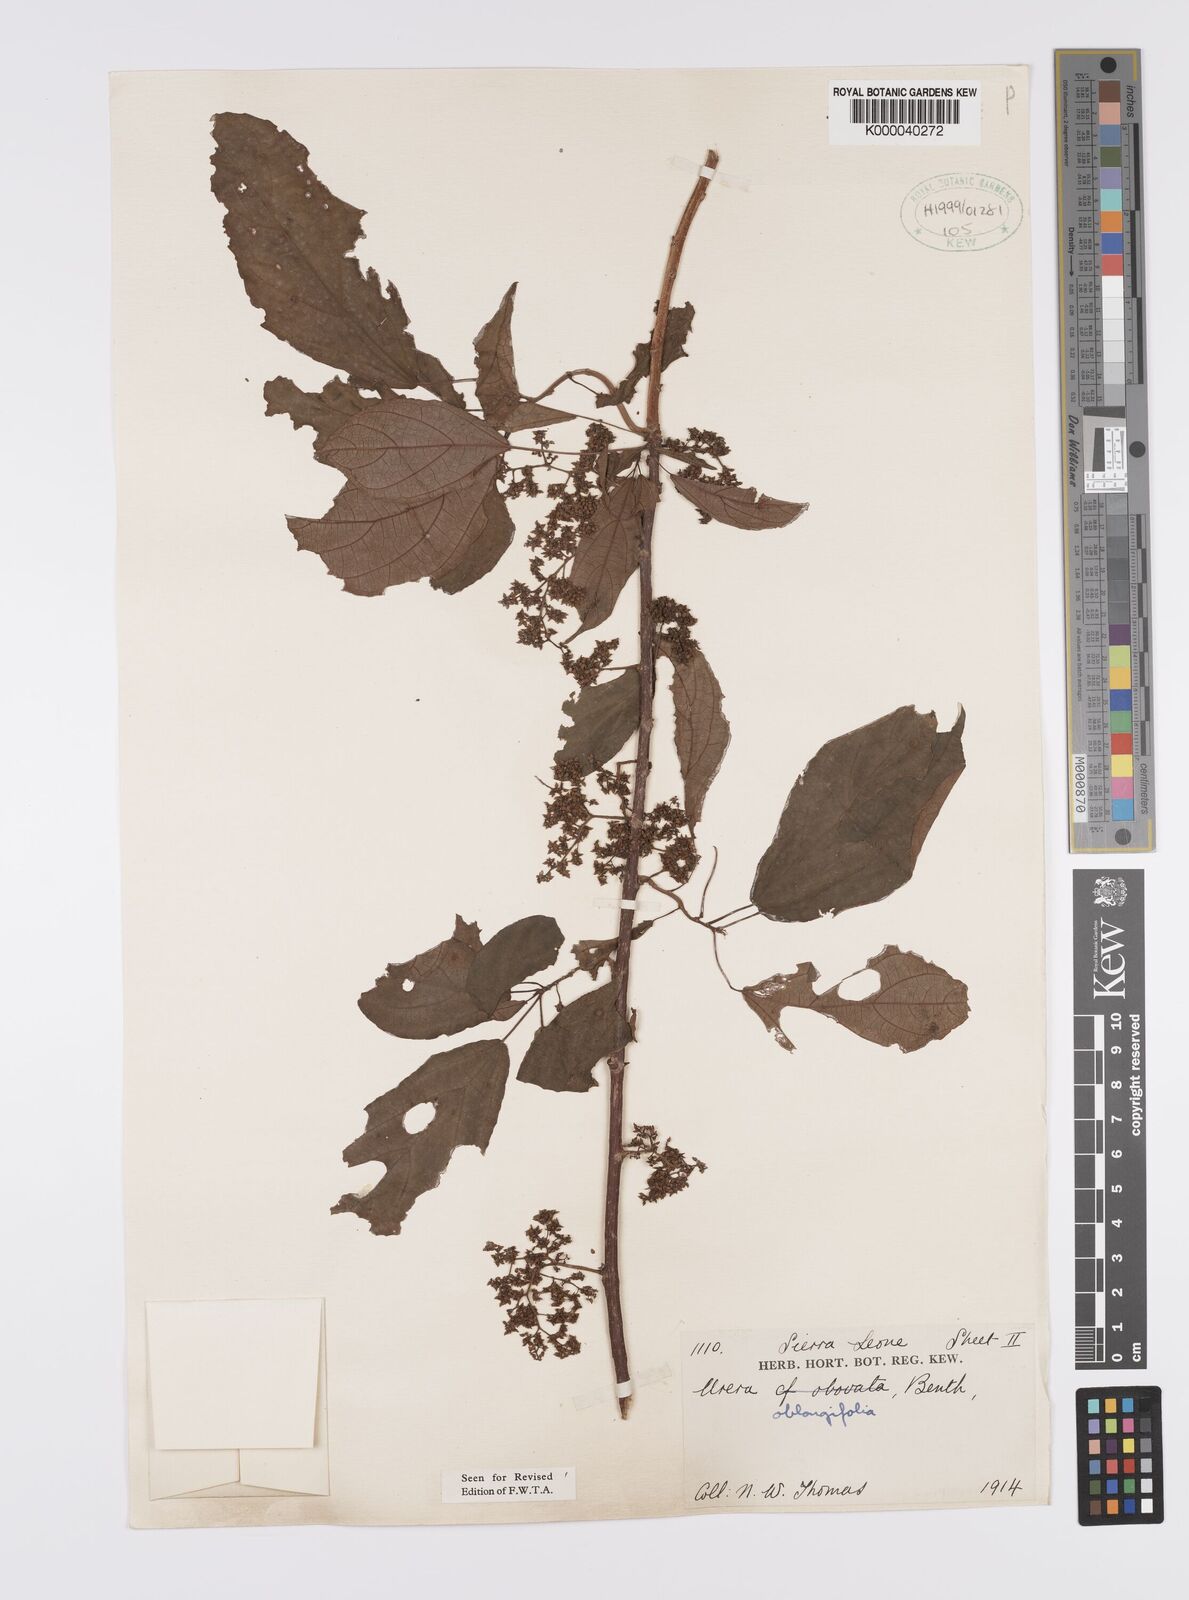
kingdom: Plantae
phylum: Tracheophyta
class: Magnoliopsida
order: Rosales
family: Urticaceae
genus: Scepocarpus
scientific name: Scepocarpus oblongifolius
